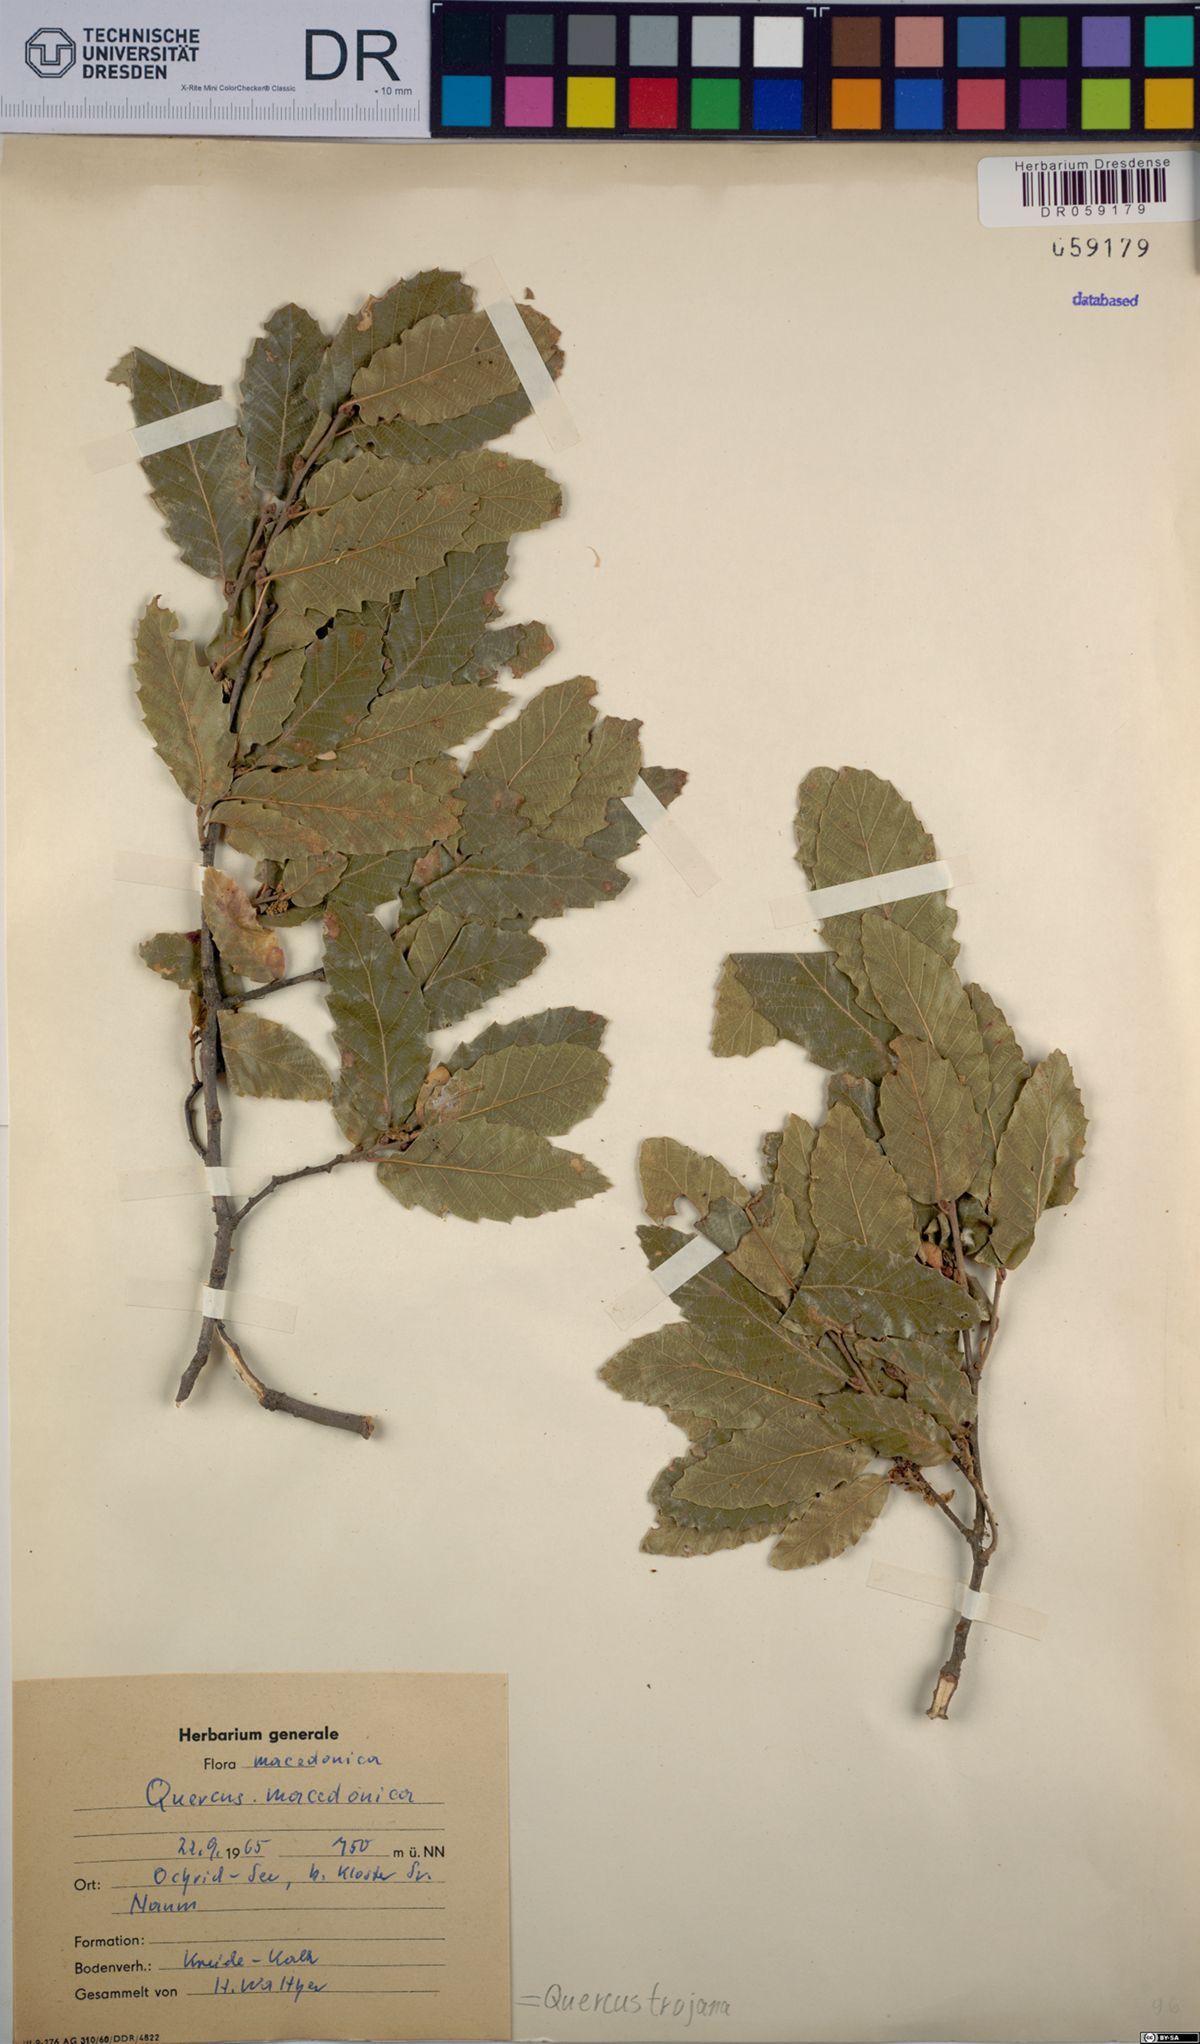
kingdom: Plantae
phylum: Tracheophyta
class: Magnoliopsida
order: Fagales
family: Fagaceae
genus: Quercus
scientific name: Quercus trojana
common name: Macedonian oak
